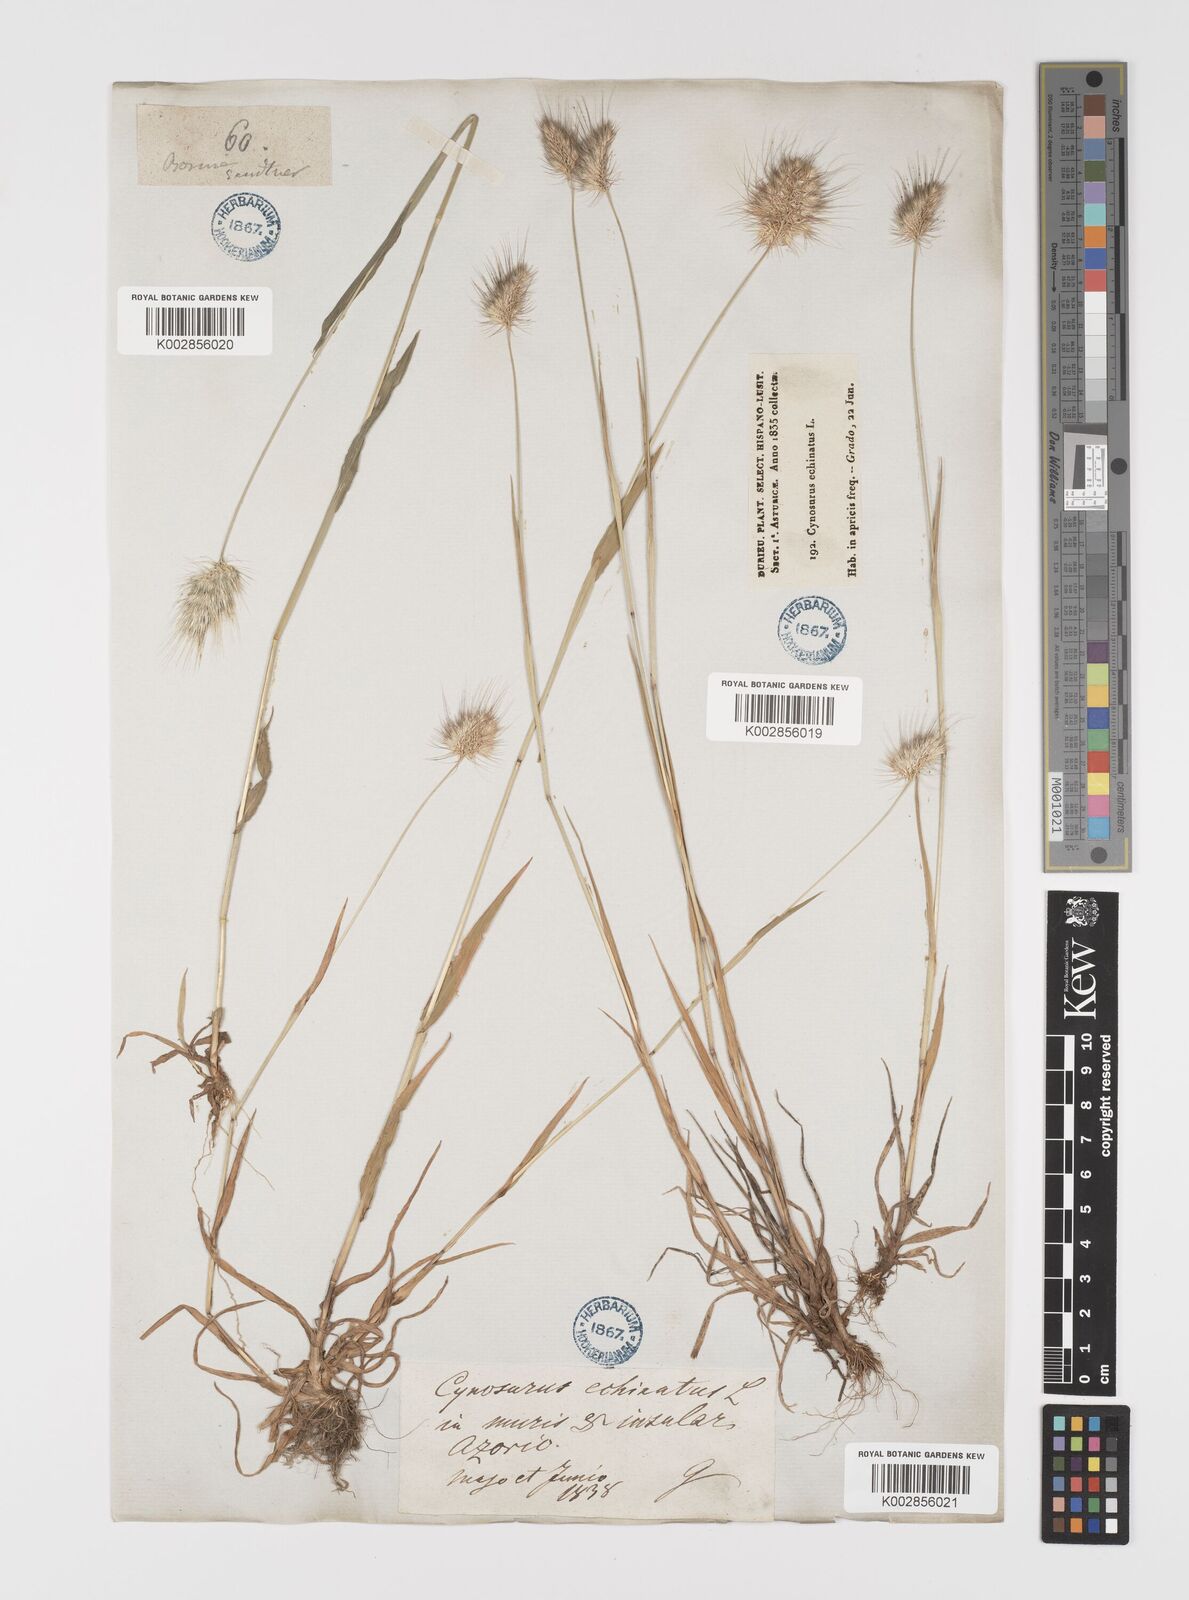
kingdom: Plantae
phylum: Tracheophyta
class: Liliopsida
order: Poales
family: Poaceae
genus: Cynosurus
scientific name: Cynosurus echinatus
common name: Rough dog's-tail
